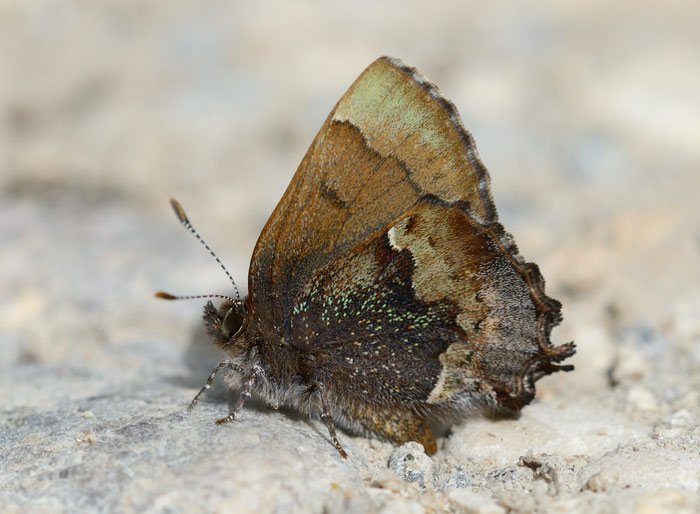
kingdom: Animalia
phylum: Arthropoda
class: Insecta
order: Lepidoptera
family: Lycaenidae
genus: Incisalia
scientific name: Incisalia henrici
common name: Henry's Elfin
